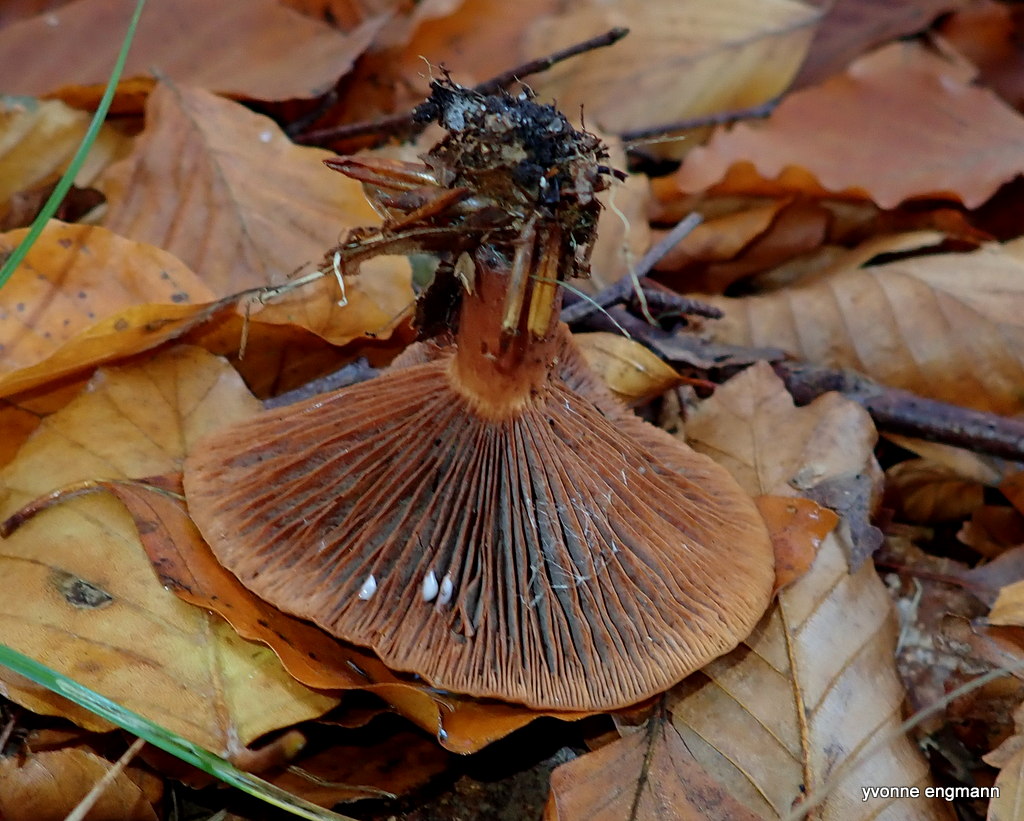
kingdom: Fungi
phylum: Basidiomycota
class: Agaricomycetes
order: Russulales
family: Russulaceae
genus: Lactarius
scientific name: Lactarius camphoratus
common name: kamfer-mælkehat
